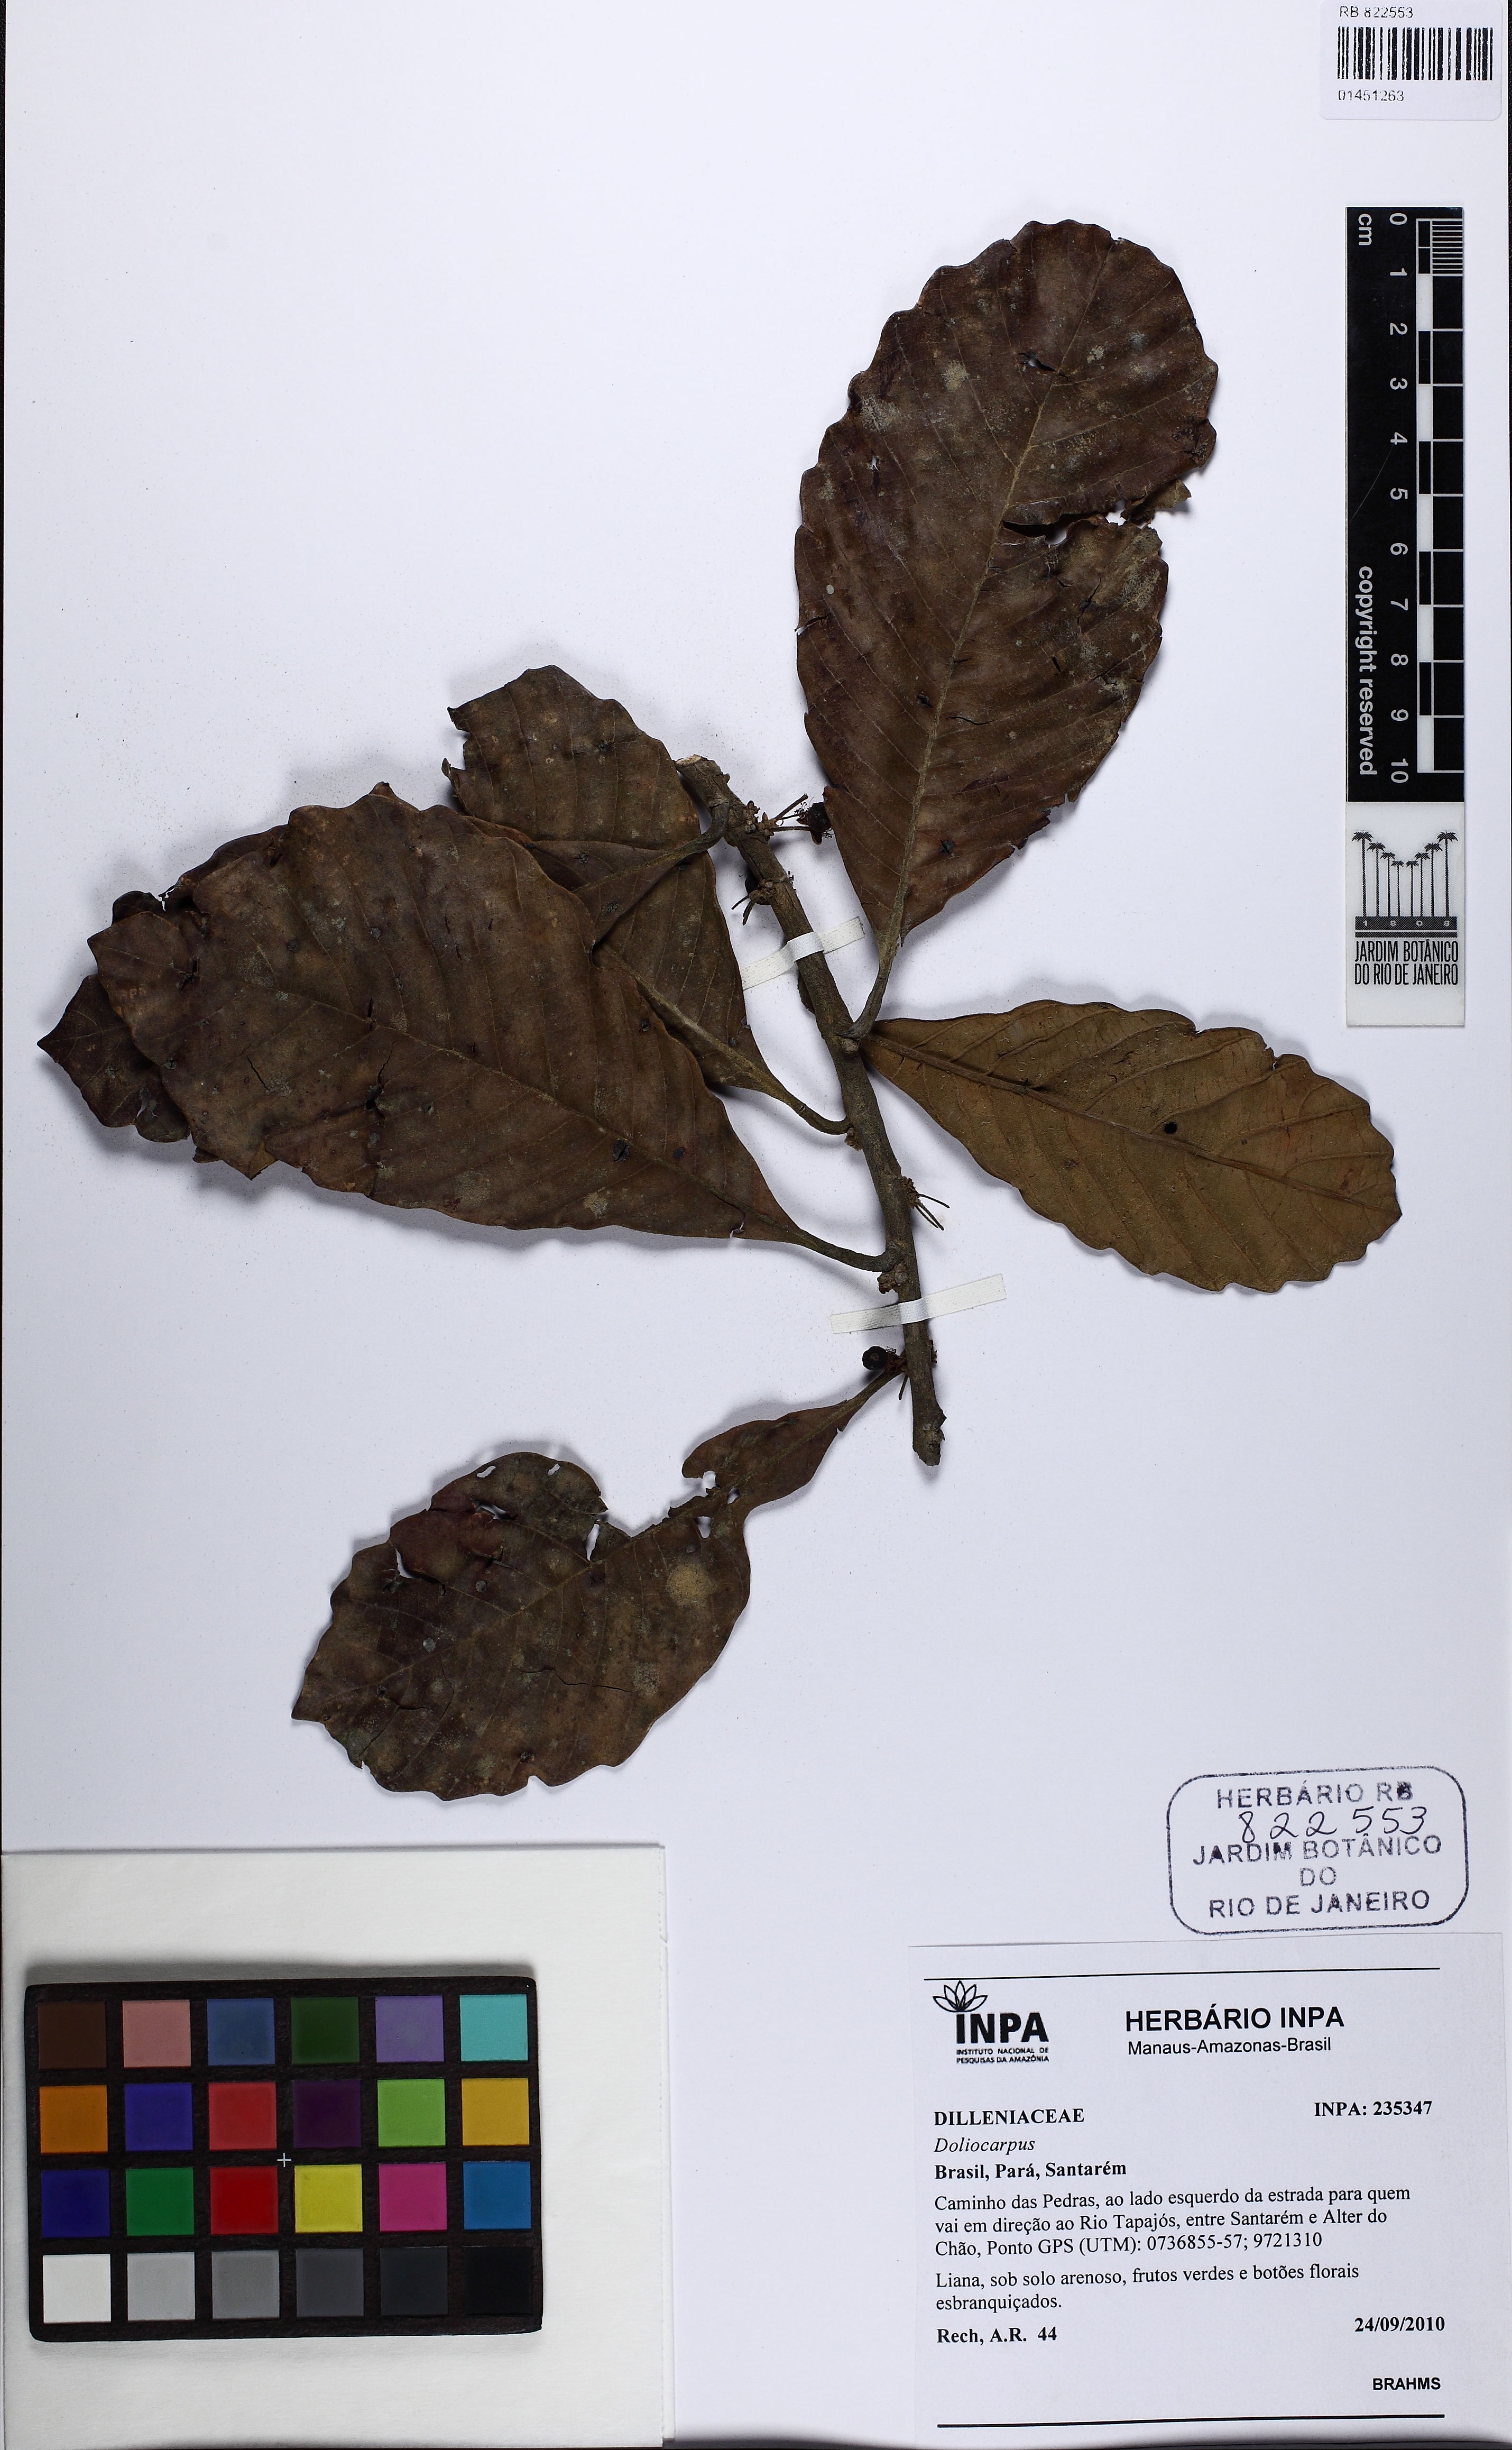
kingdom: Plantae
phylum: Tracheophyta
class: Magnoliopsida
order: Dilleniales
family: Dilleniaceae
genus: Doliocarpus
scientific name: Doliocarpus dentatus
